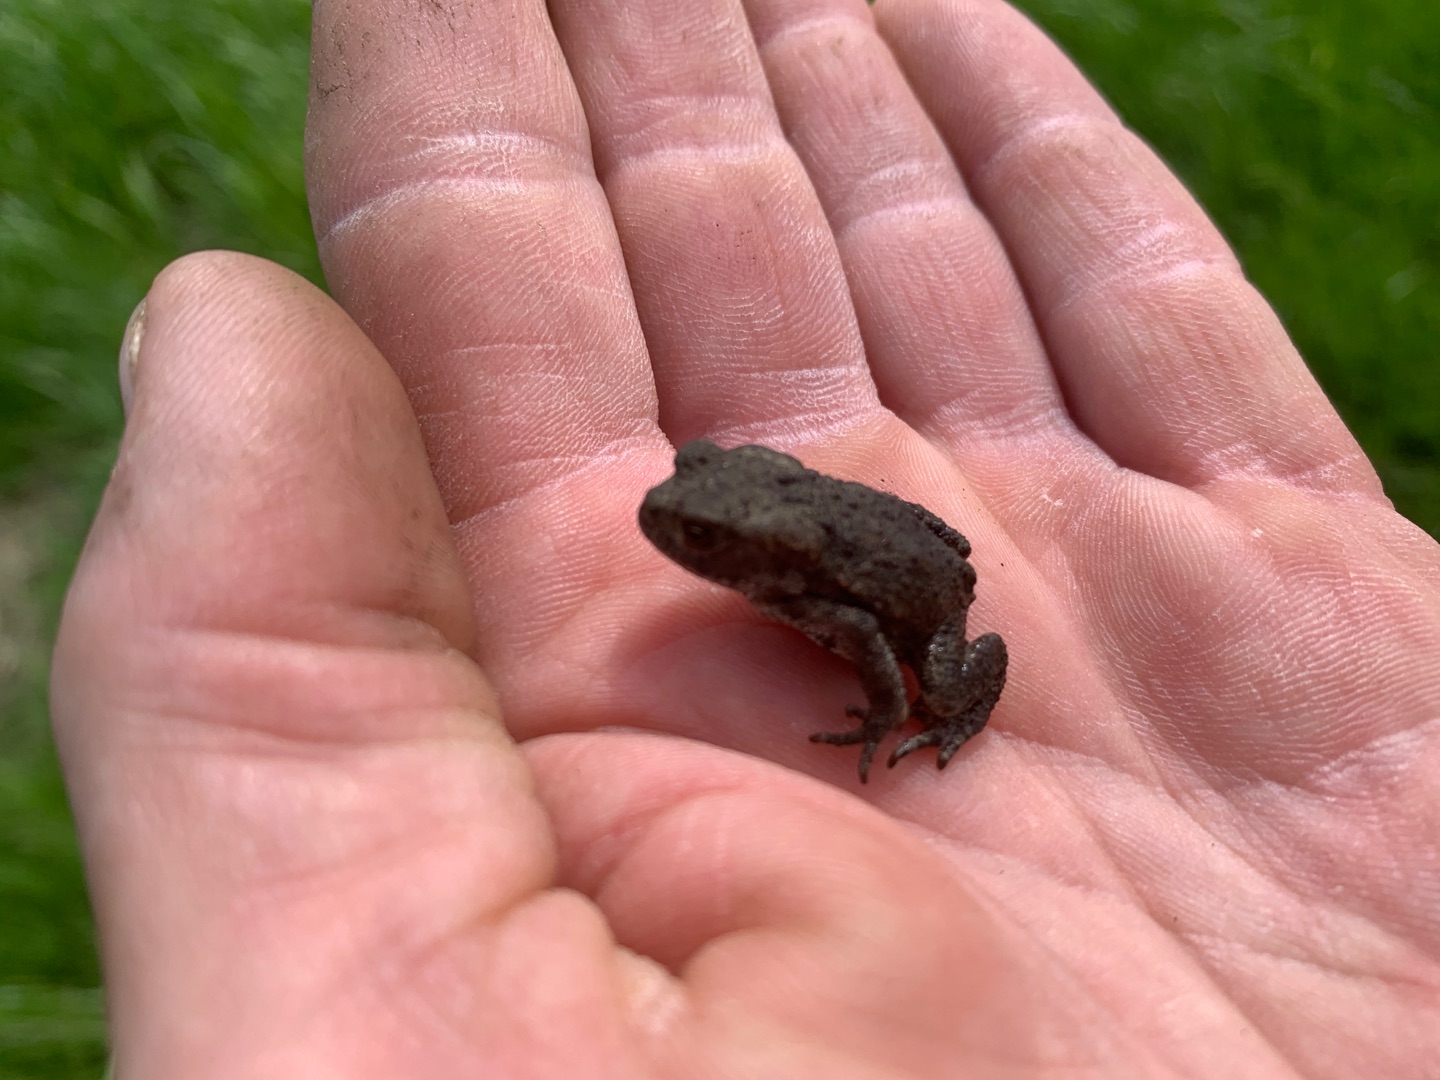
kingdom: Animalia
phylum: Chordata
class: Amphibia
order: Anura
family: Bufonidae
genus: Bufo
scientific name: Bufo bufo
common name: Skrubtudse
